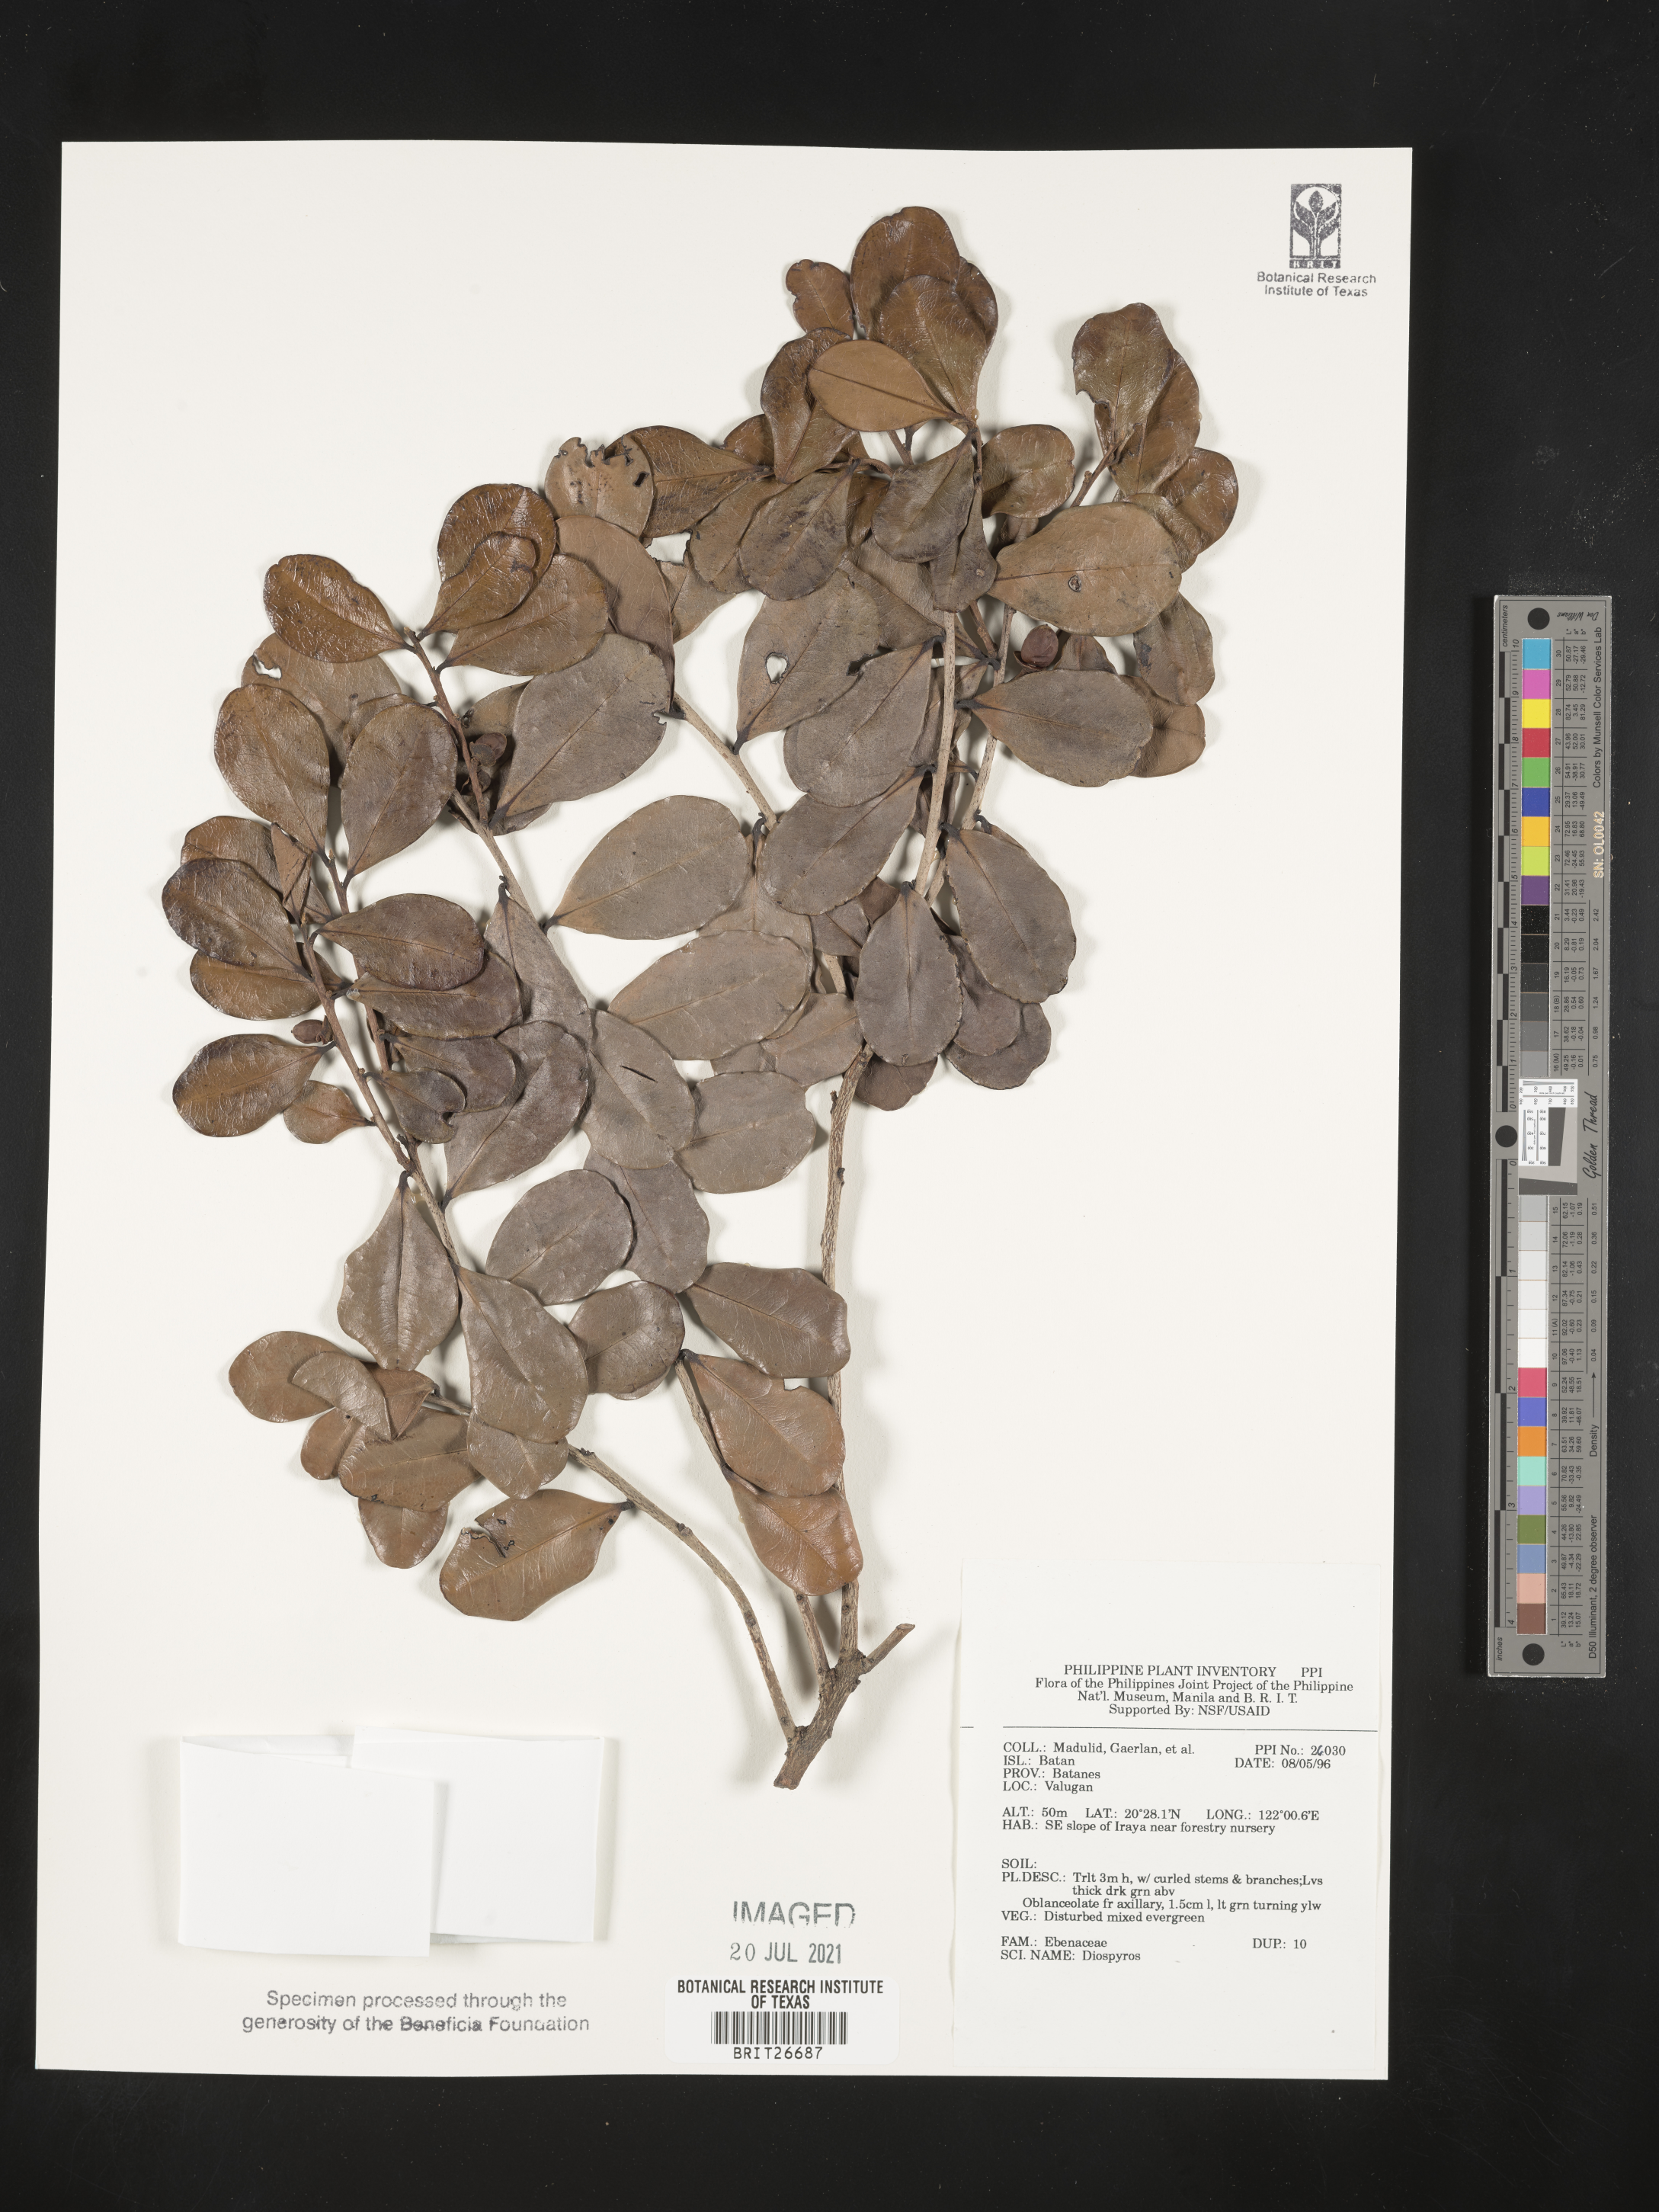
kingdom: Plantae
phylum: Tracheophyta
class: Magnoliopsida
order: Ericales
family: Ebenaceae
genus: Diospyros
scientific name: Diospyros
